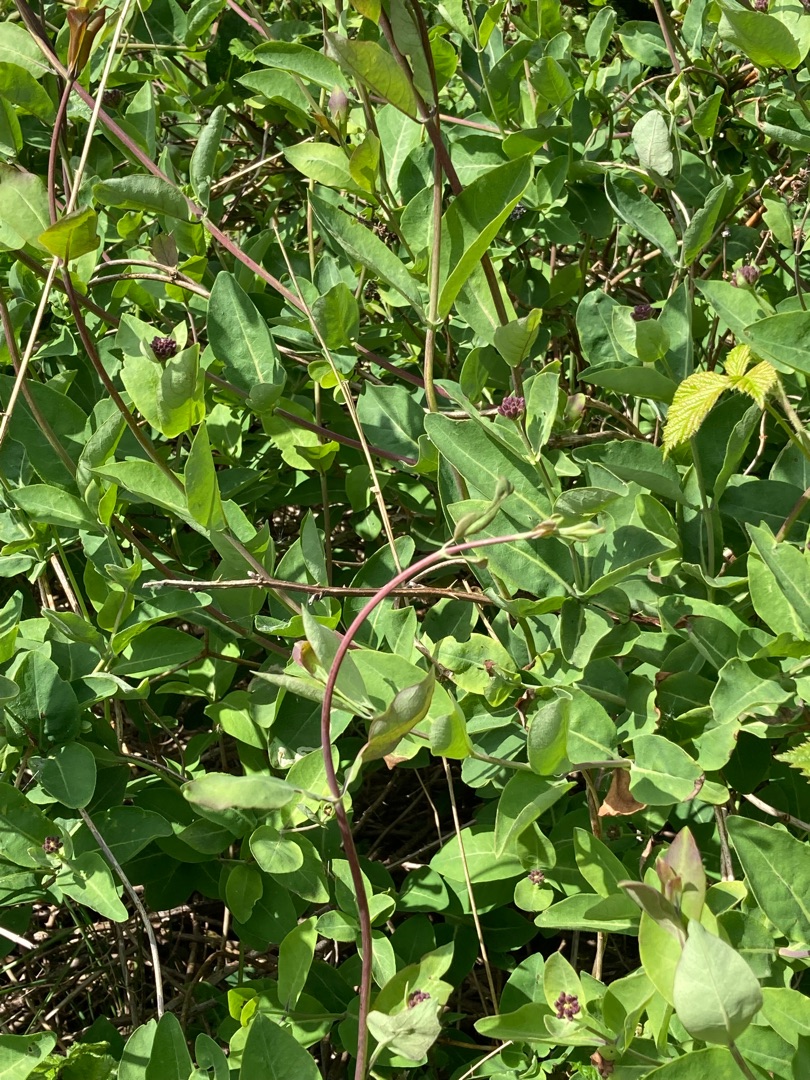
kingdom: Plantae
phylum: Tracheophyta
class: Magnoliopsida
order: Dipsacales
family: Caprifoliaceae
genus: Lonicera
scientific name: Lonicera periclymenum
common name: Almindelig gedeblad
